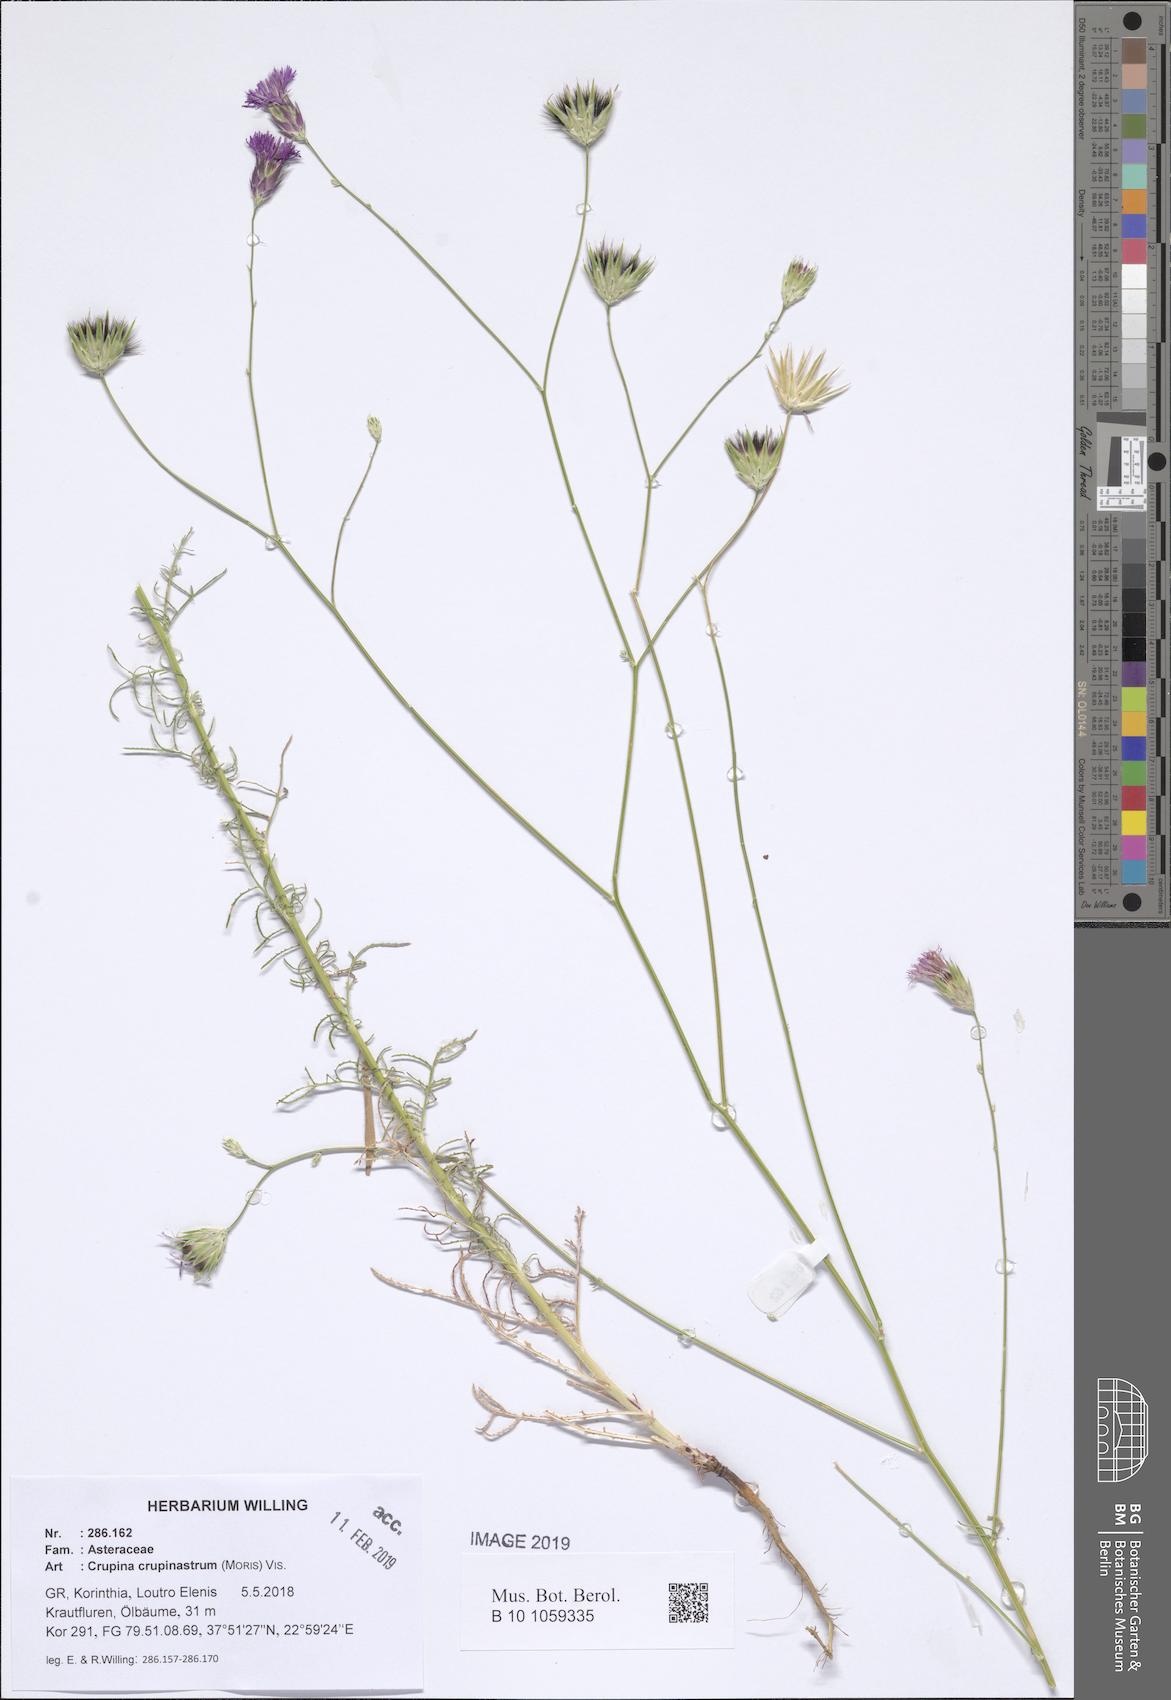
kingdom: Plantae
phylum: Tracheophyta
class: Magnoliopsida
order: Asterales
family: Asteraceae
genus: Crupina
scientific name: Crupina crupinastrum
